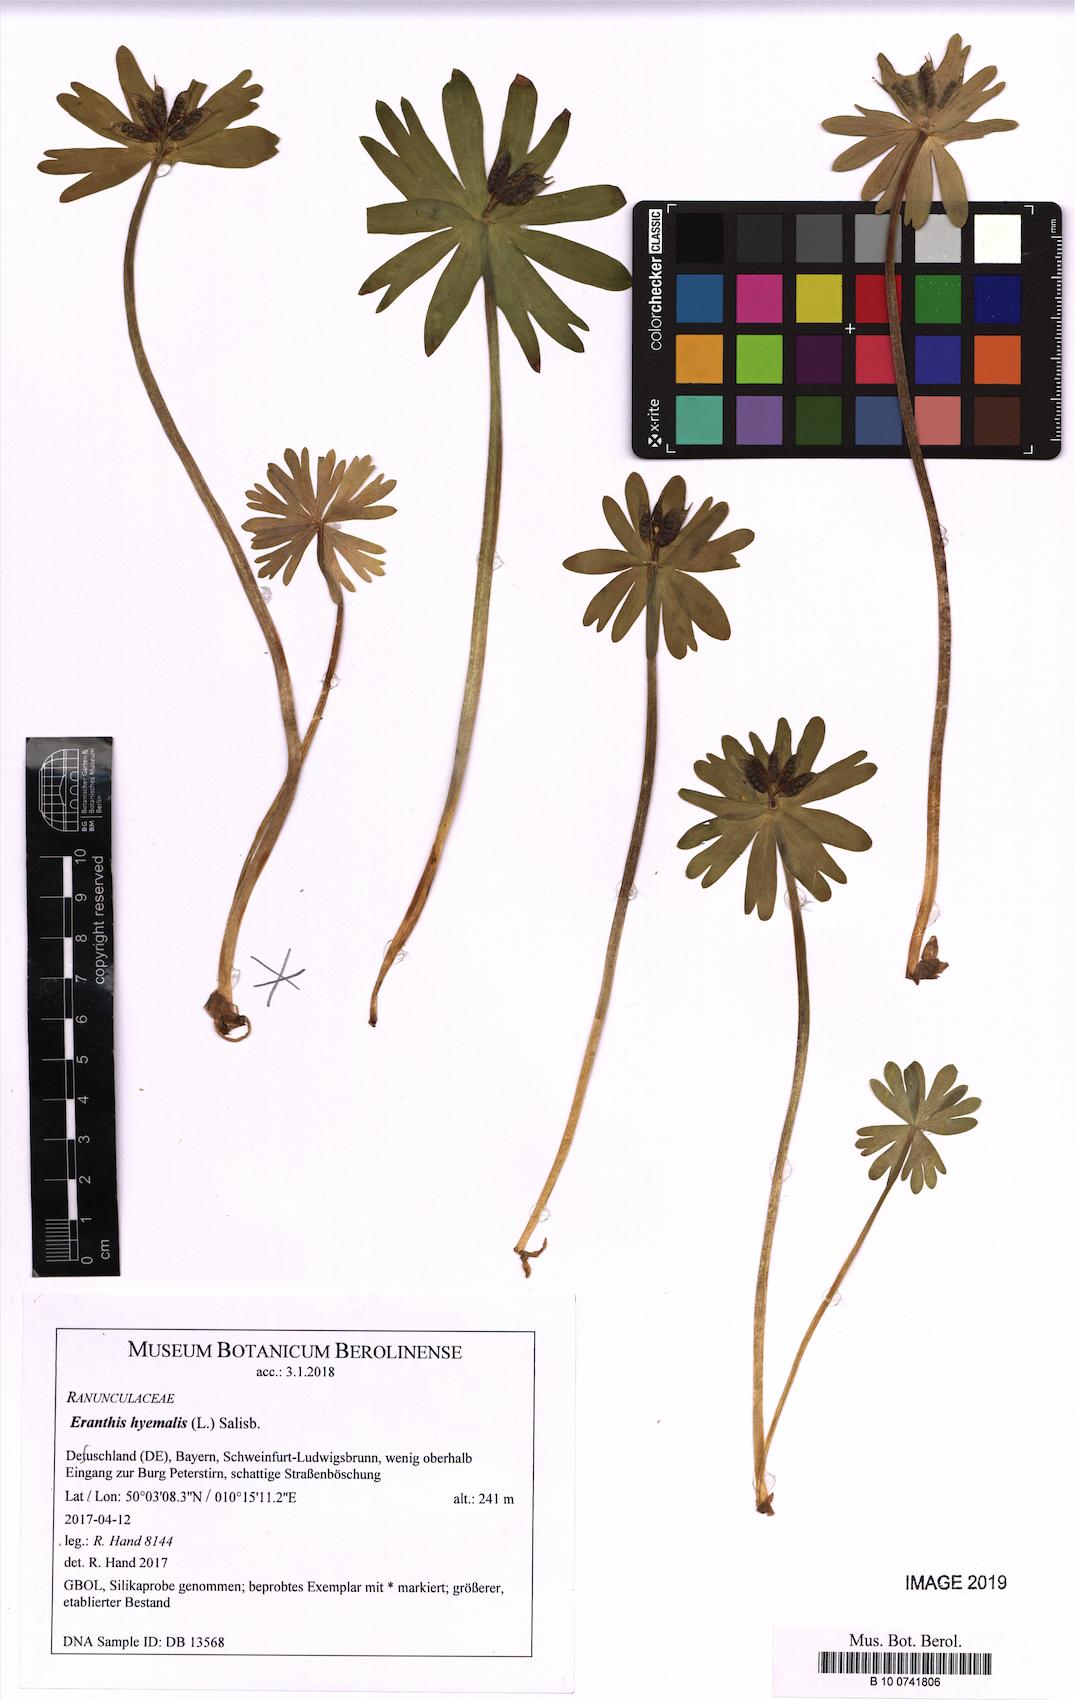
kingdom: Plantae
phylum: Tracheophyta
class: Magnoliopsida
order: Ranunculales
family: Ranunculaceae
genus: Eranthis
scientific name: Eranthis hyemalis
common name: Winter aconite
